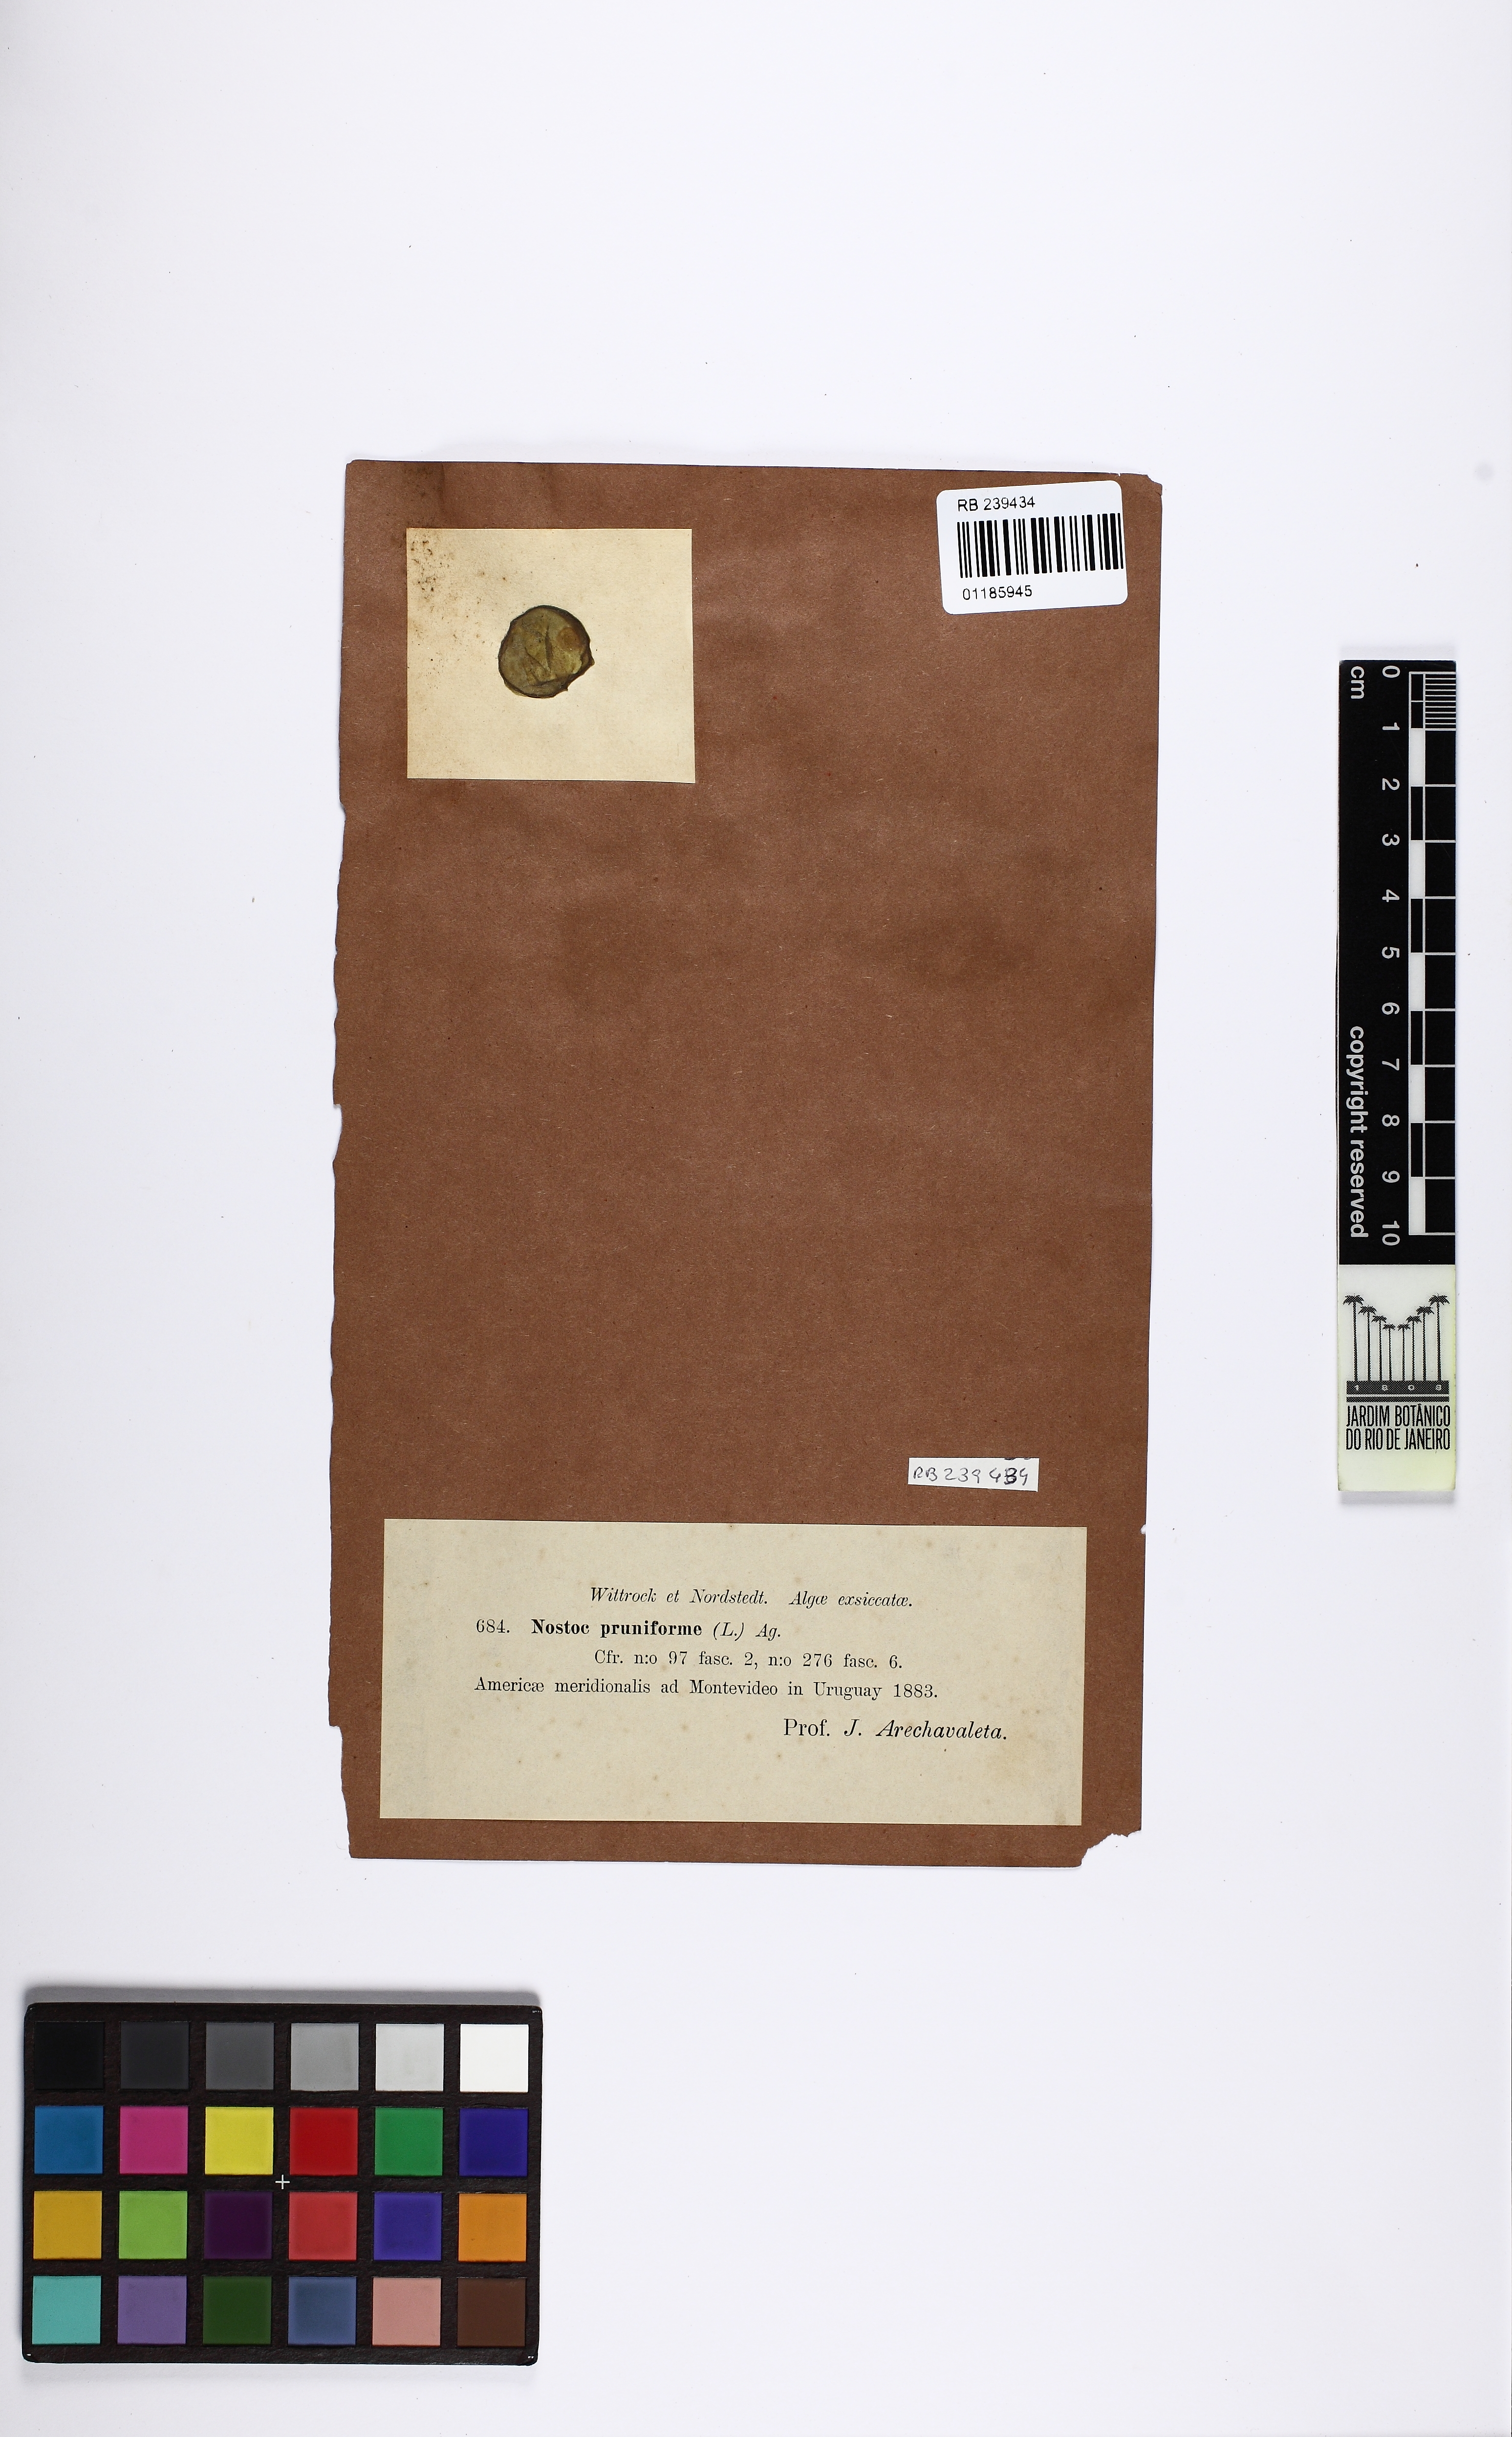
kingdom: Bacteria
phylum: Cyanobacteria
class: Cyanobacteriia
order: Cyanobacteriales
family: Nostocaceae
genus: Nostoc
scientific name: Nostoc pruniforme
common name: Mare's eggs
